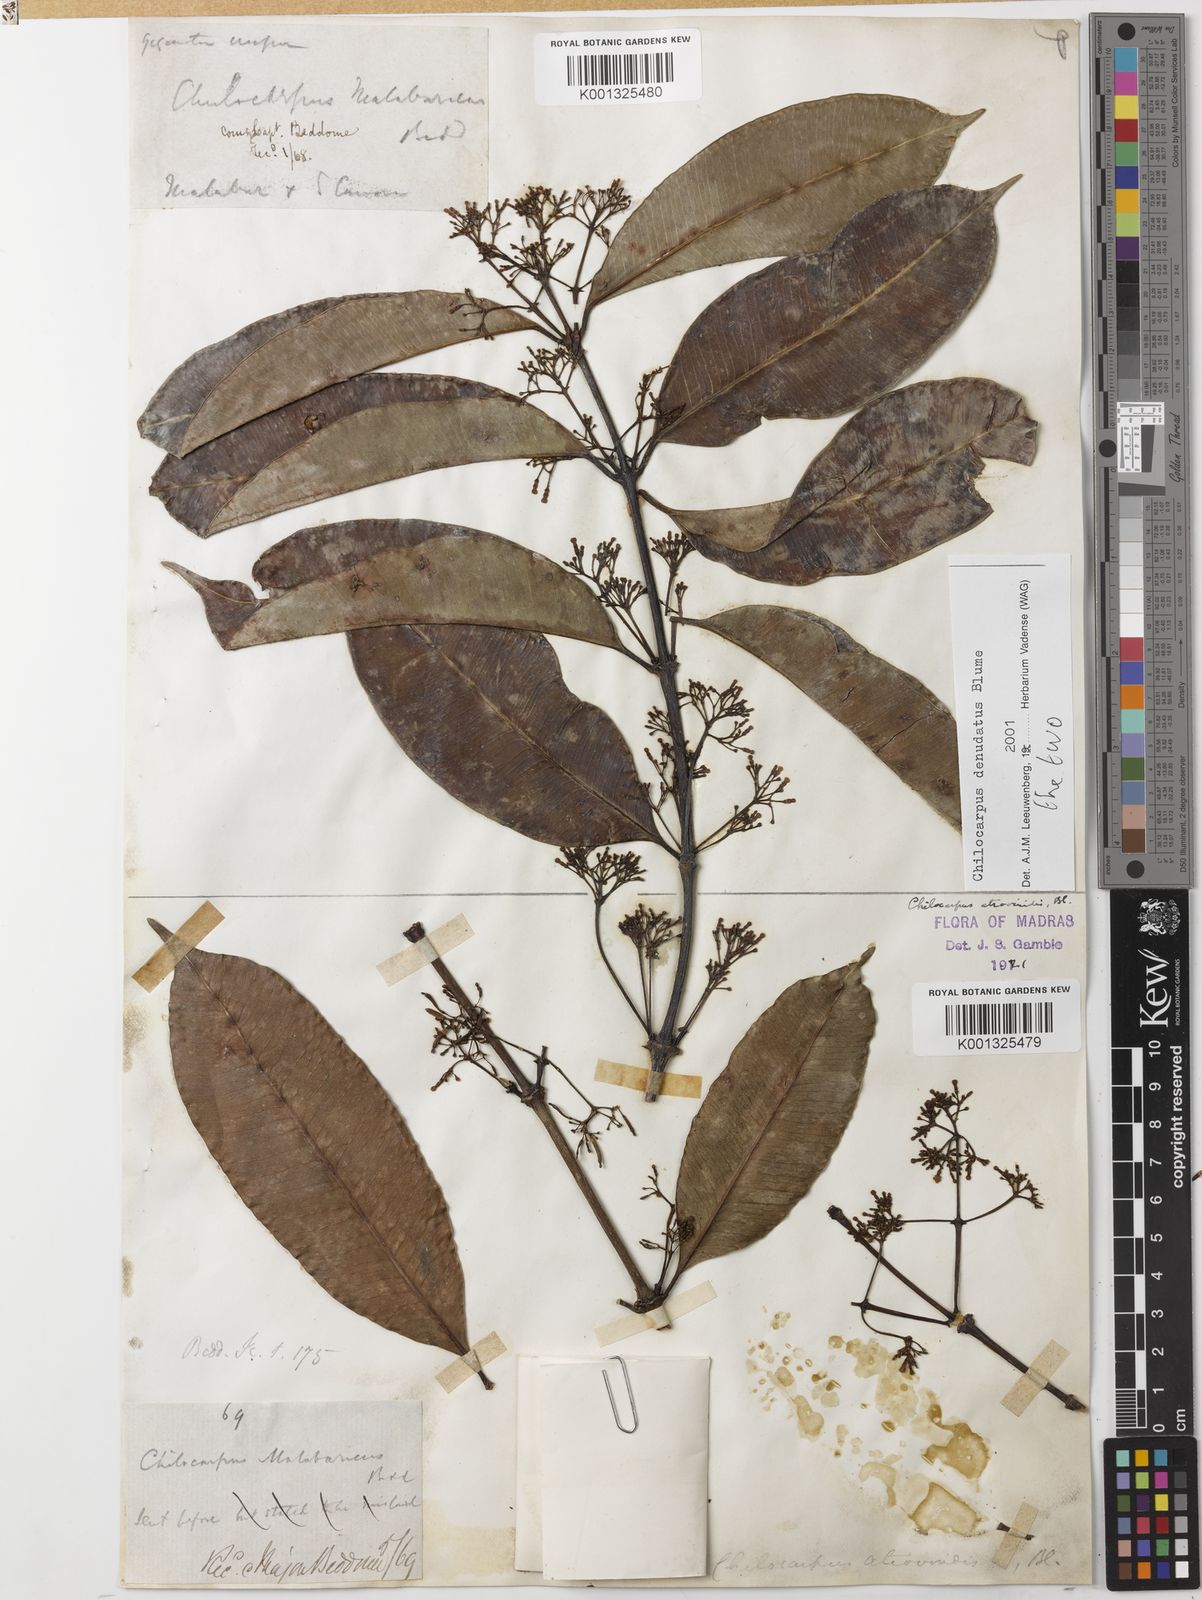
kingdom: Plantae
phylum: Tracheophyta
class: Magnoliopsida
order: Gentianales
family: Apocynaceae
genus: Chilocarpus
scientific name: Chilocarpus denudatus
